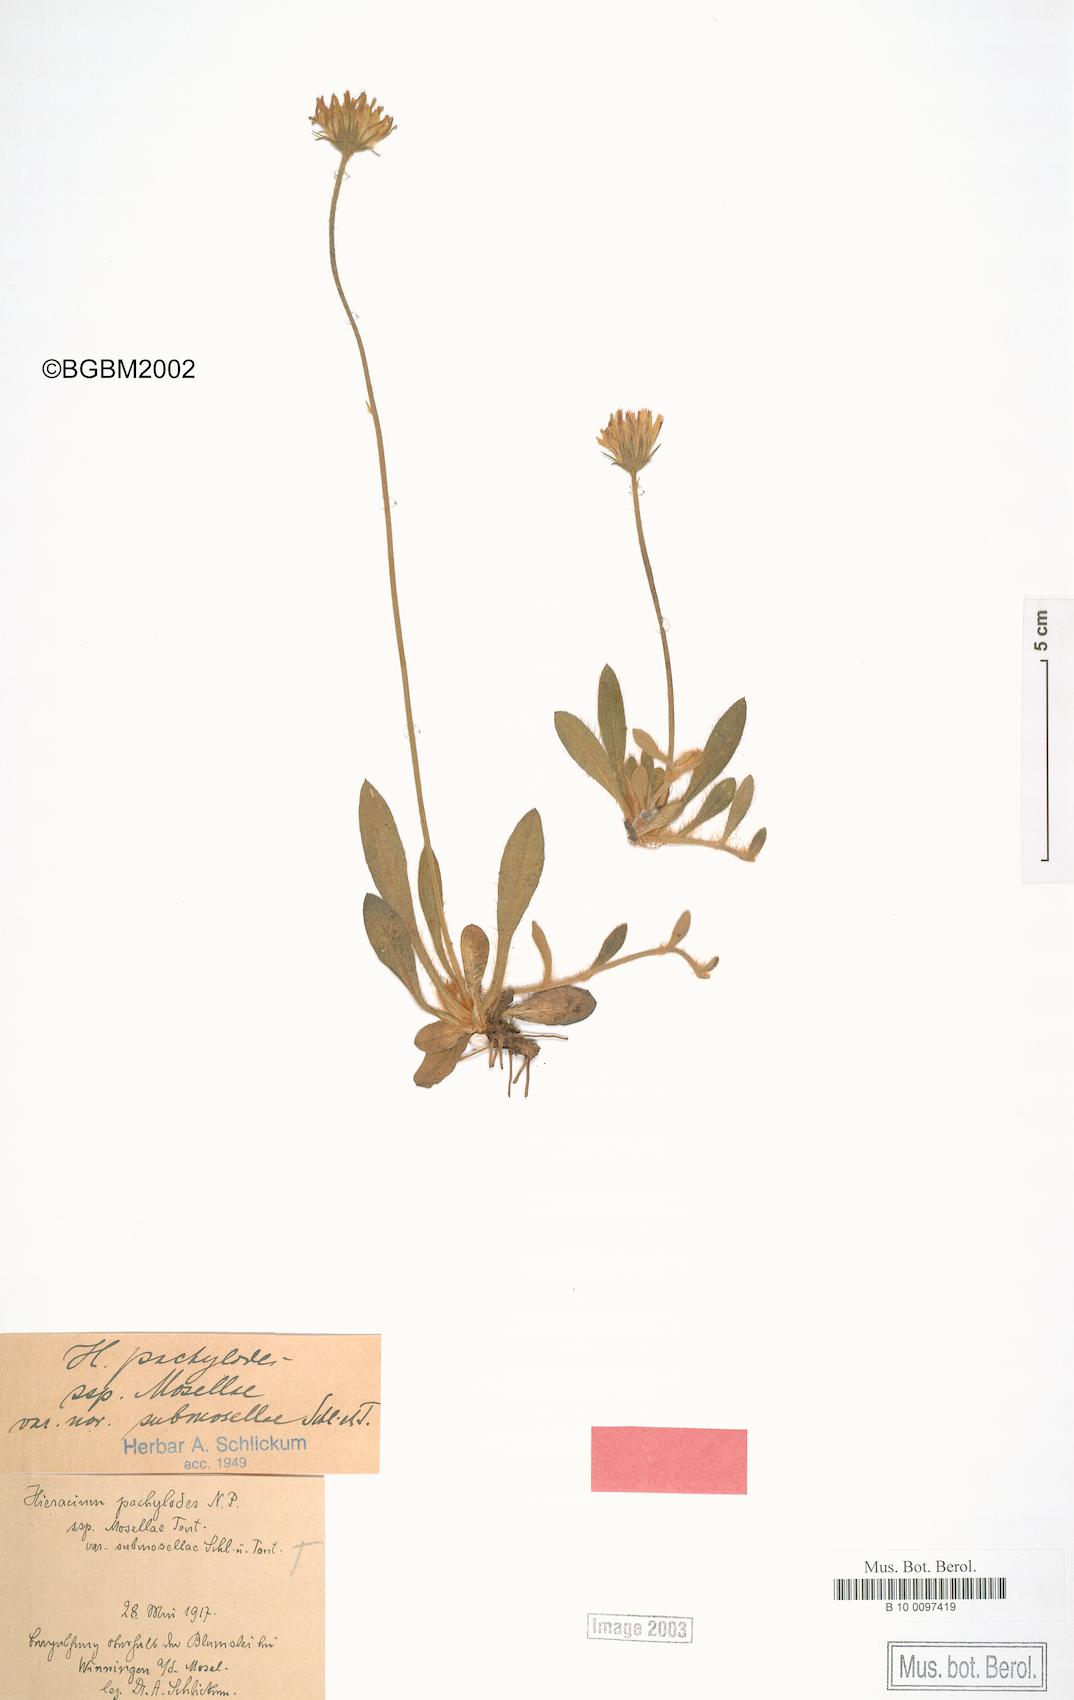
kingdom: Plantae
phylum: Tracheophyta
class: Magnoliopsida
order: Asterales
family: Asteraceae
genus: Pilosella
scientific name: Pilosella longisquama
